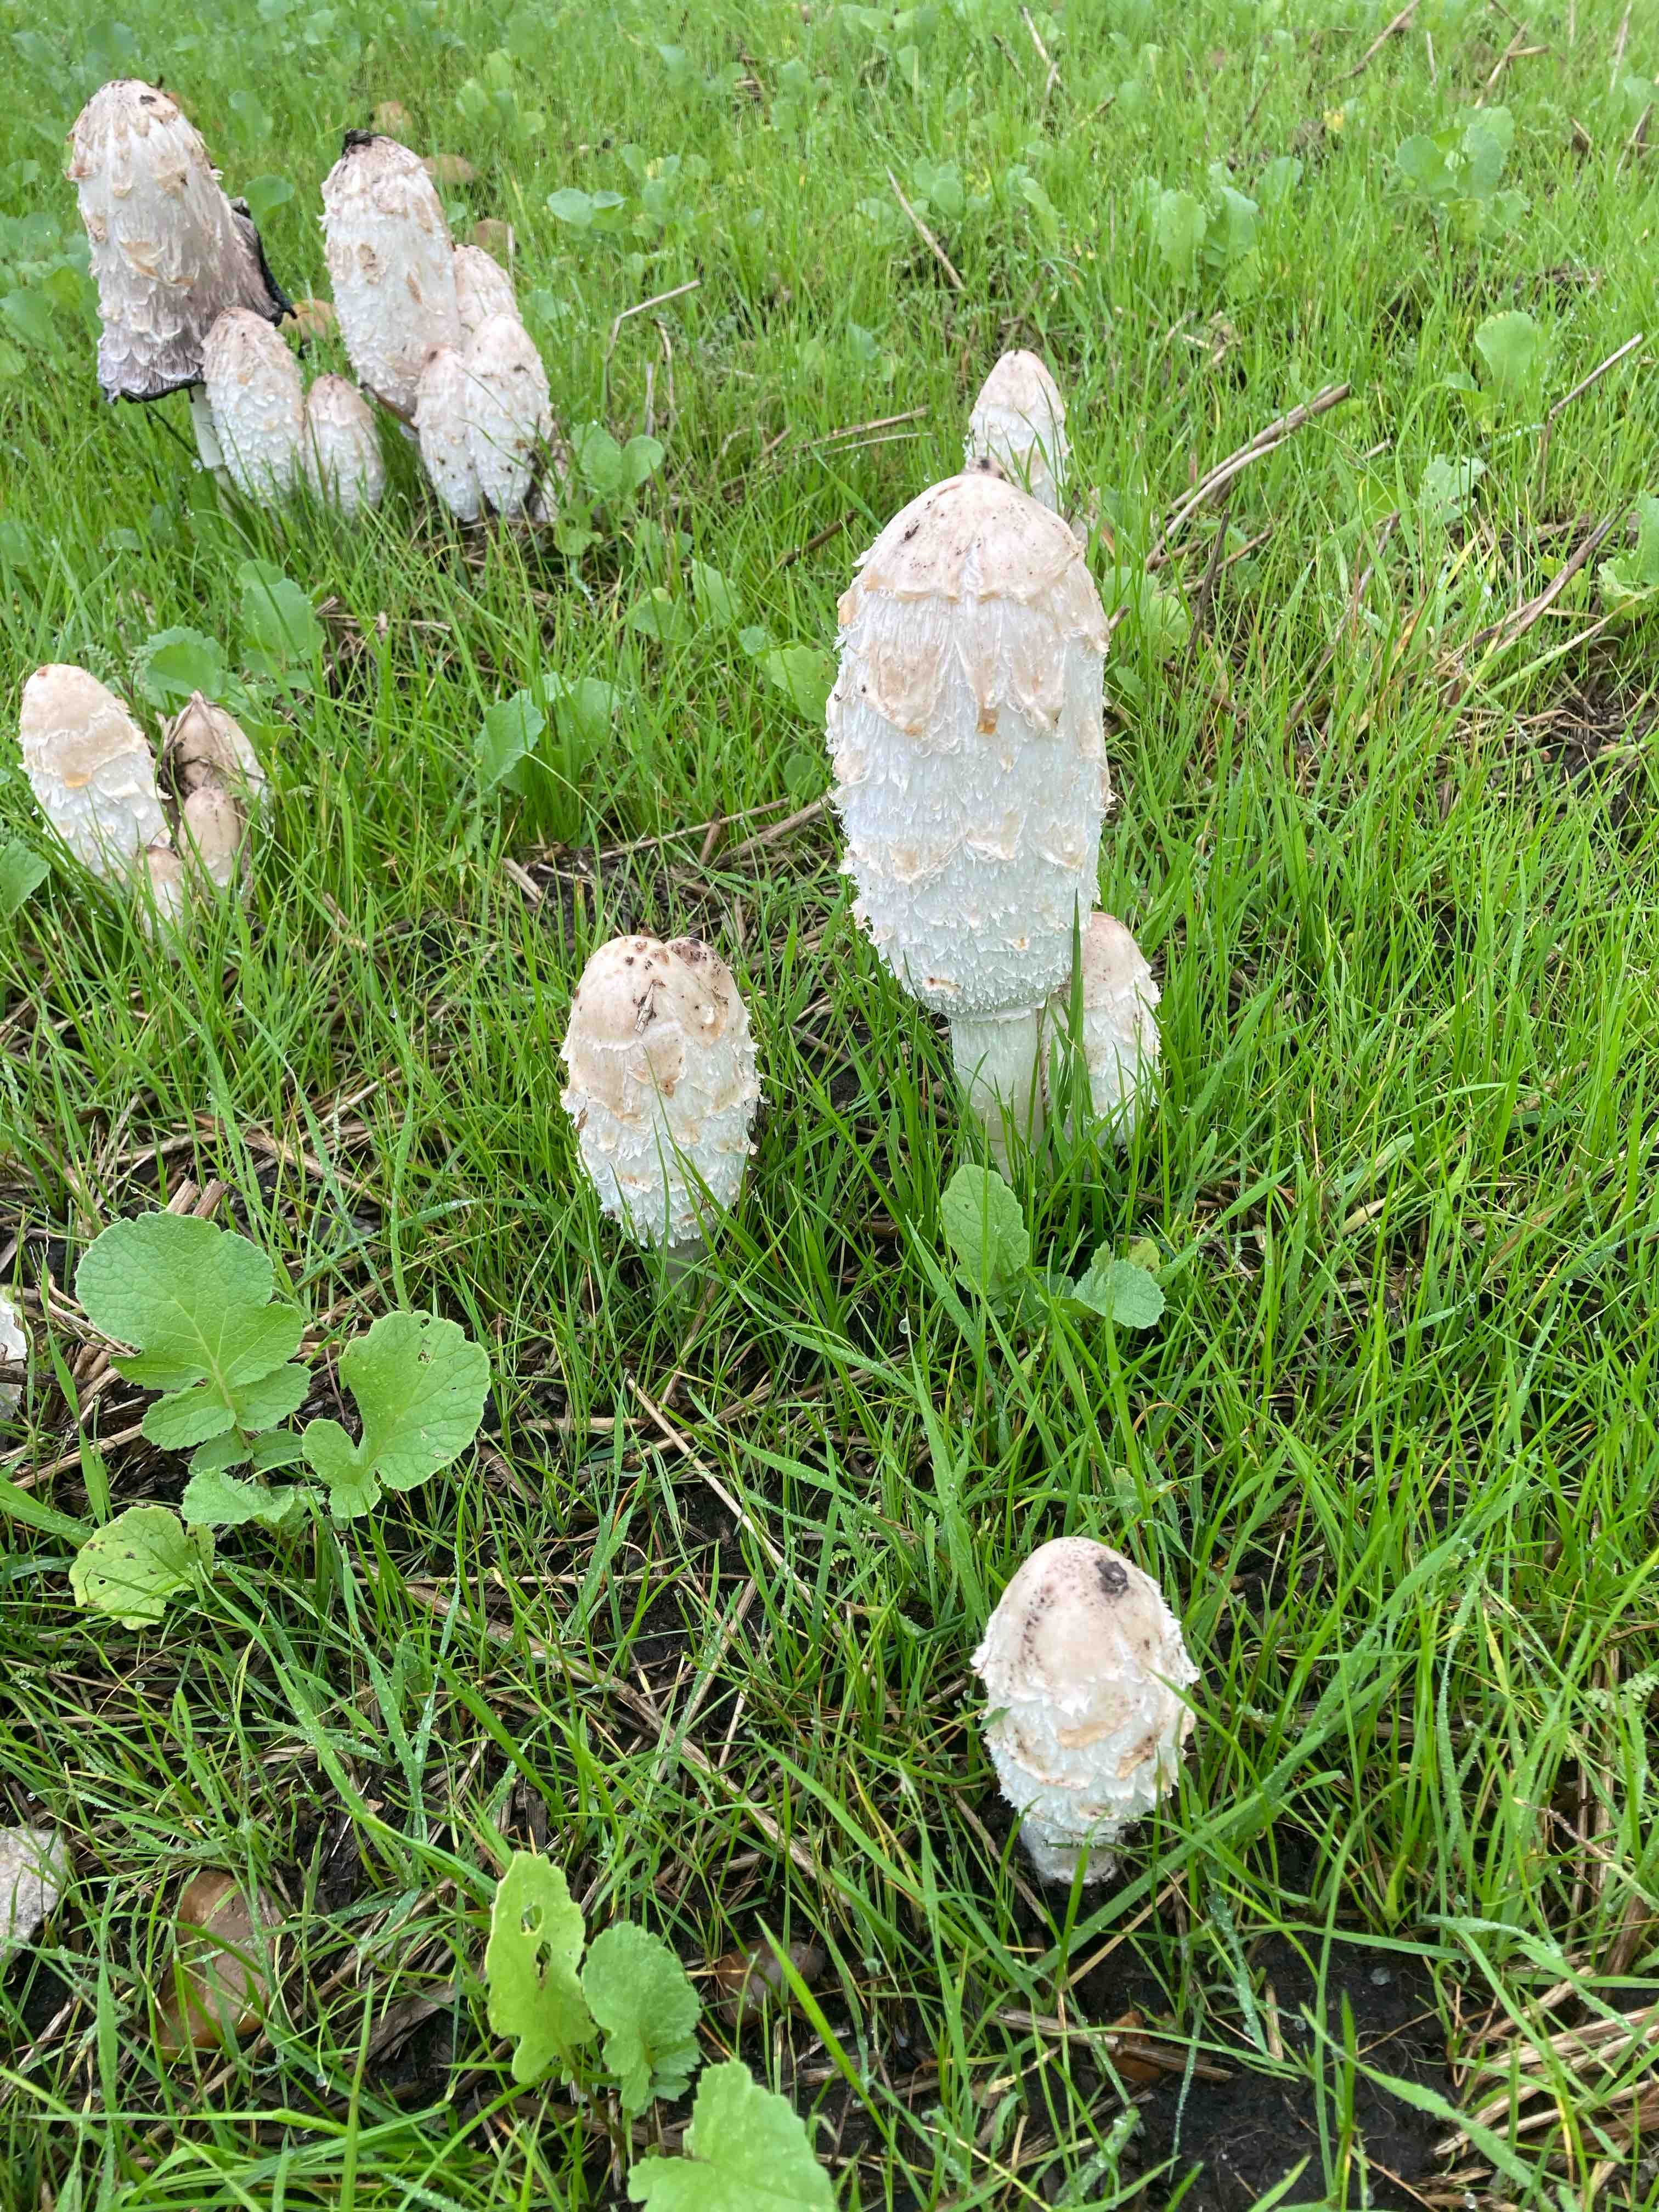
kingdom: Fungi
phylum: Basidiomycota
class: Agaricomycetes
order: Agaricales
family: Agaricaceae
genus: Coprinus
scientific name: Coprinus comatus
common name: stor parykhat
